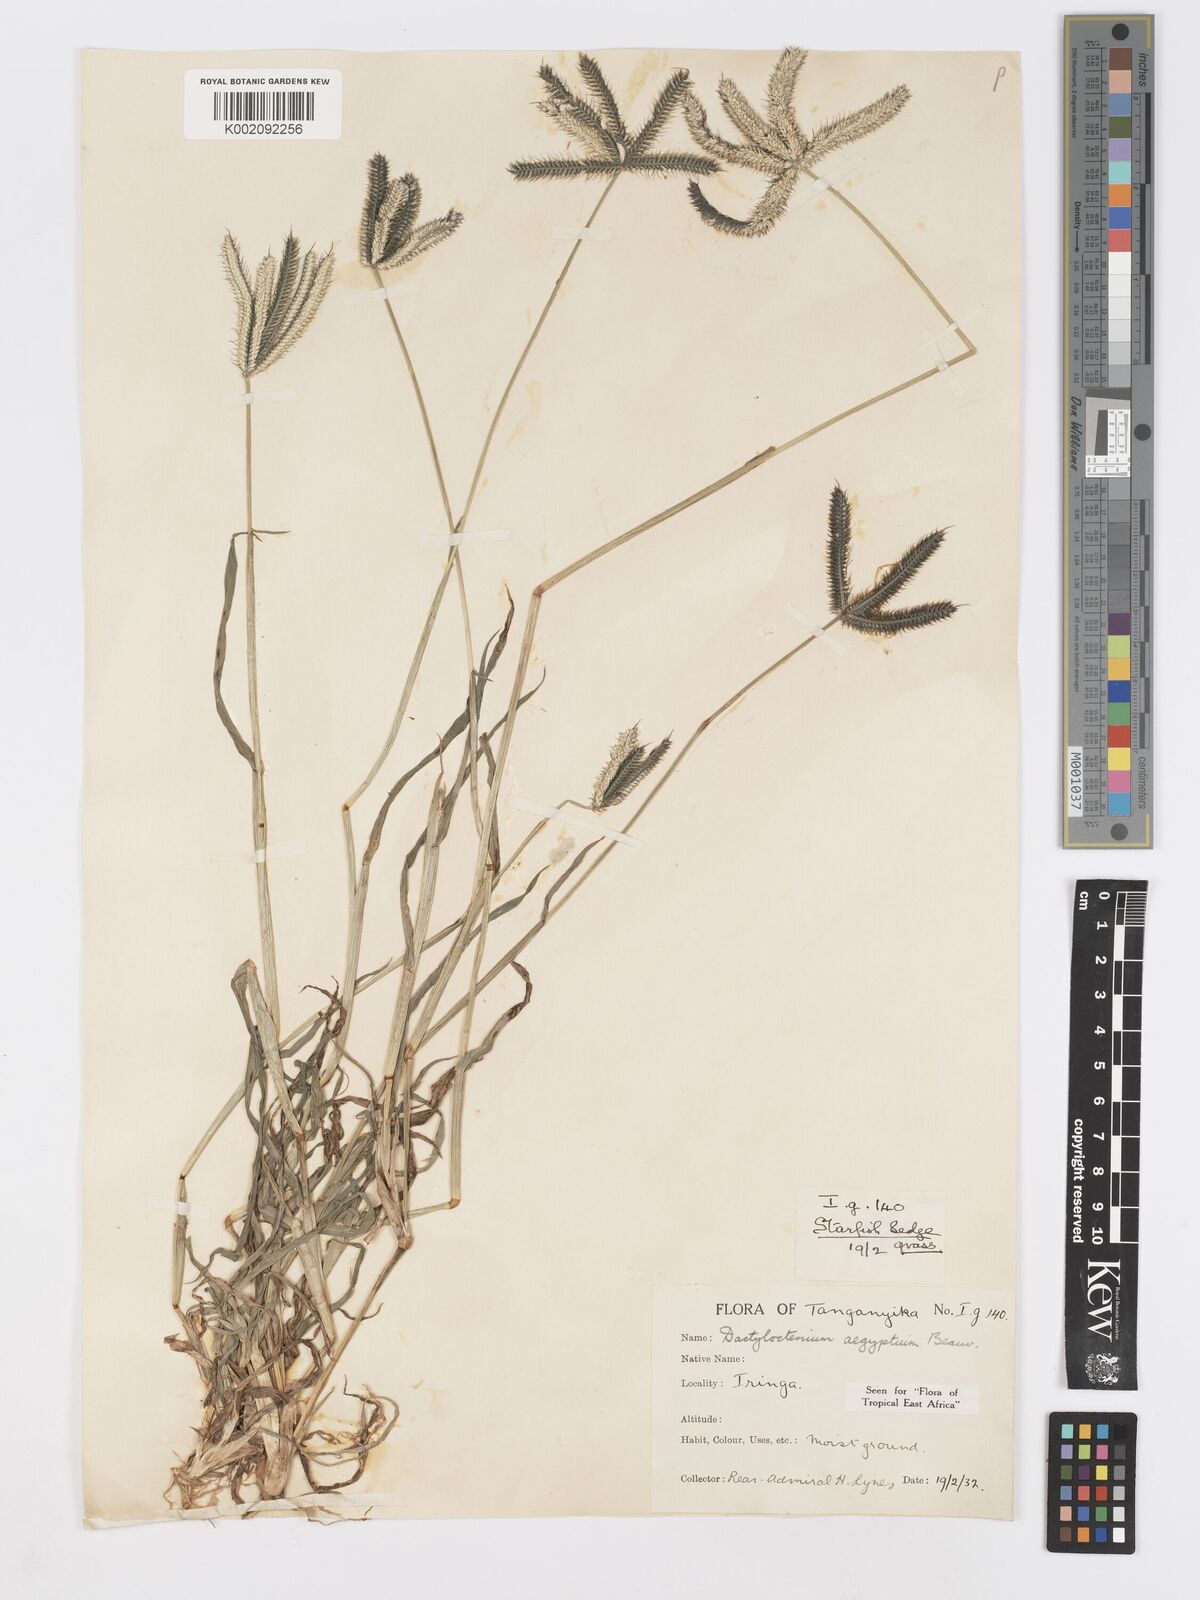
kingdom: Plantae
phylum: Tracheophyta
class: Liliopsida
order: Poales
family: Poaceae
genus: Dactyloctenium
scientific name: Dactyloctenium aegyptium
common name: Egyptian grass
